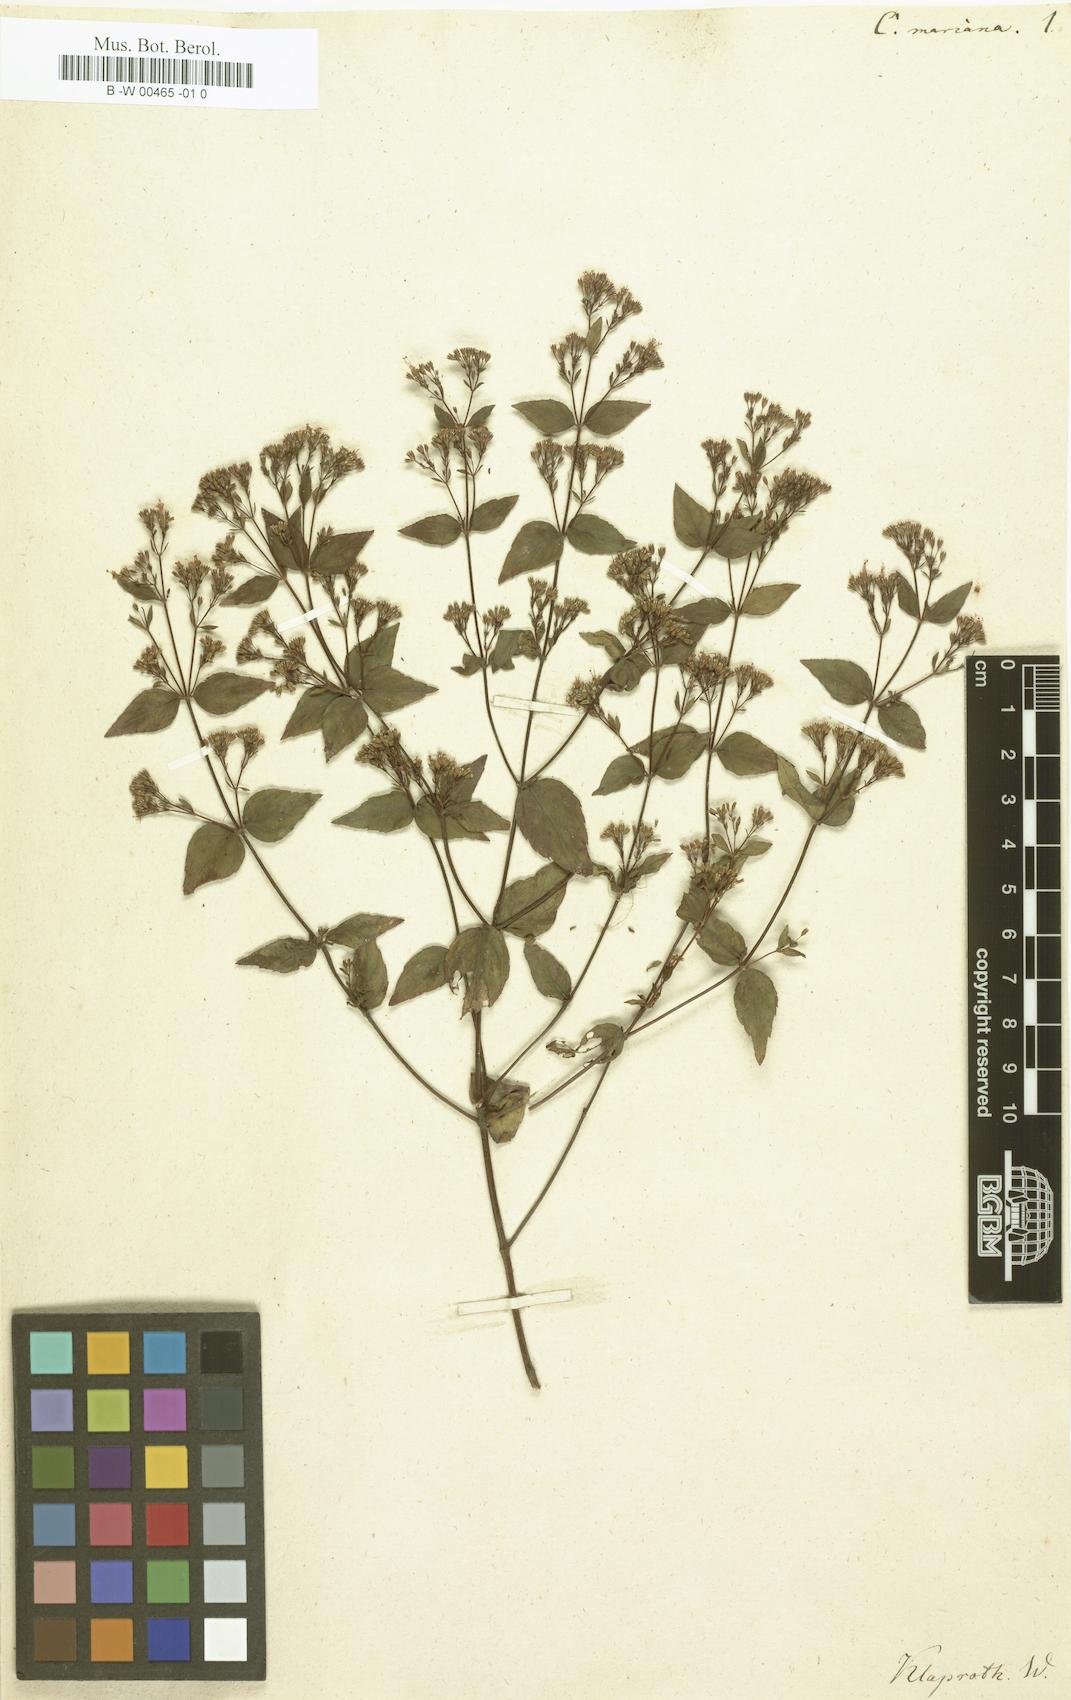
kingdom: Plantae
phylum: Tracheophyta
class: Magnoliopsida
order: Lamiales
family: Lamiaceae
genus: Cunila
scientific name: Cunila origanoides
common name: American dittany
